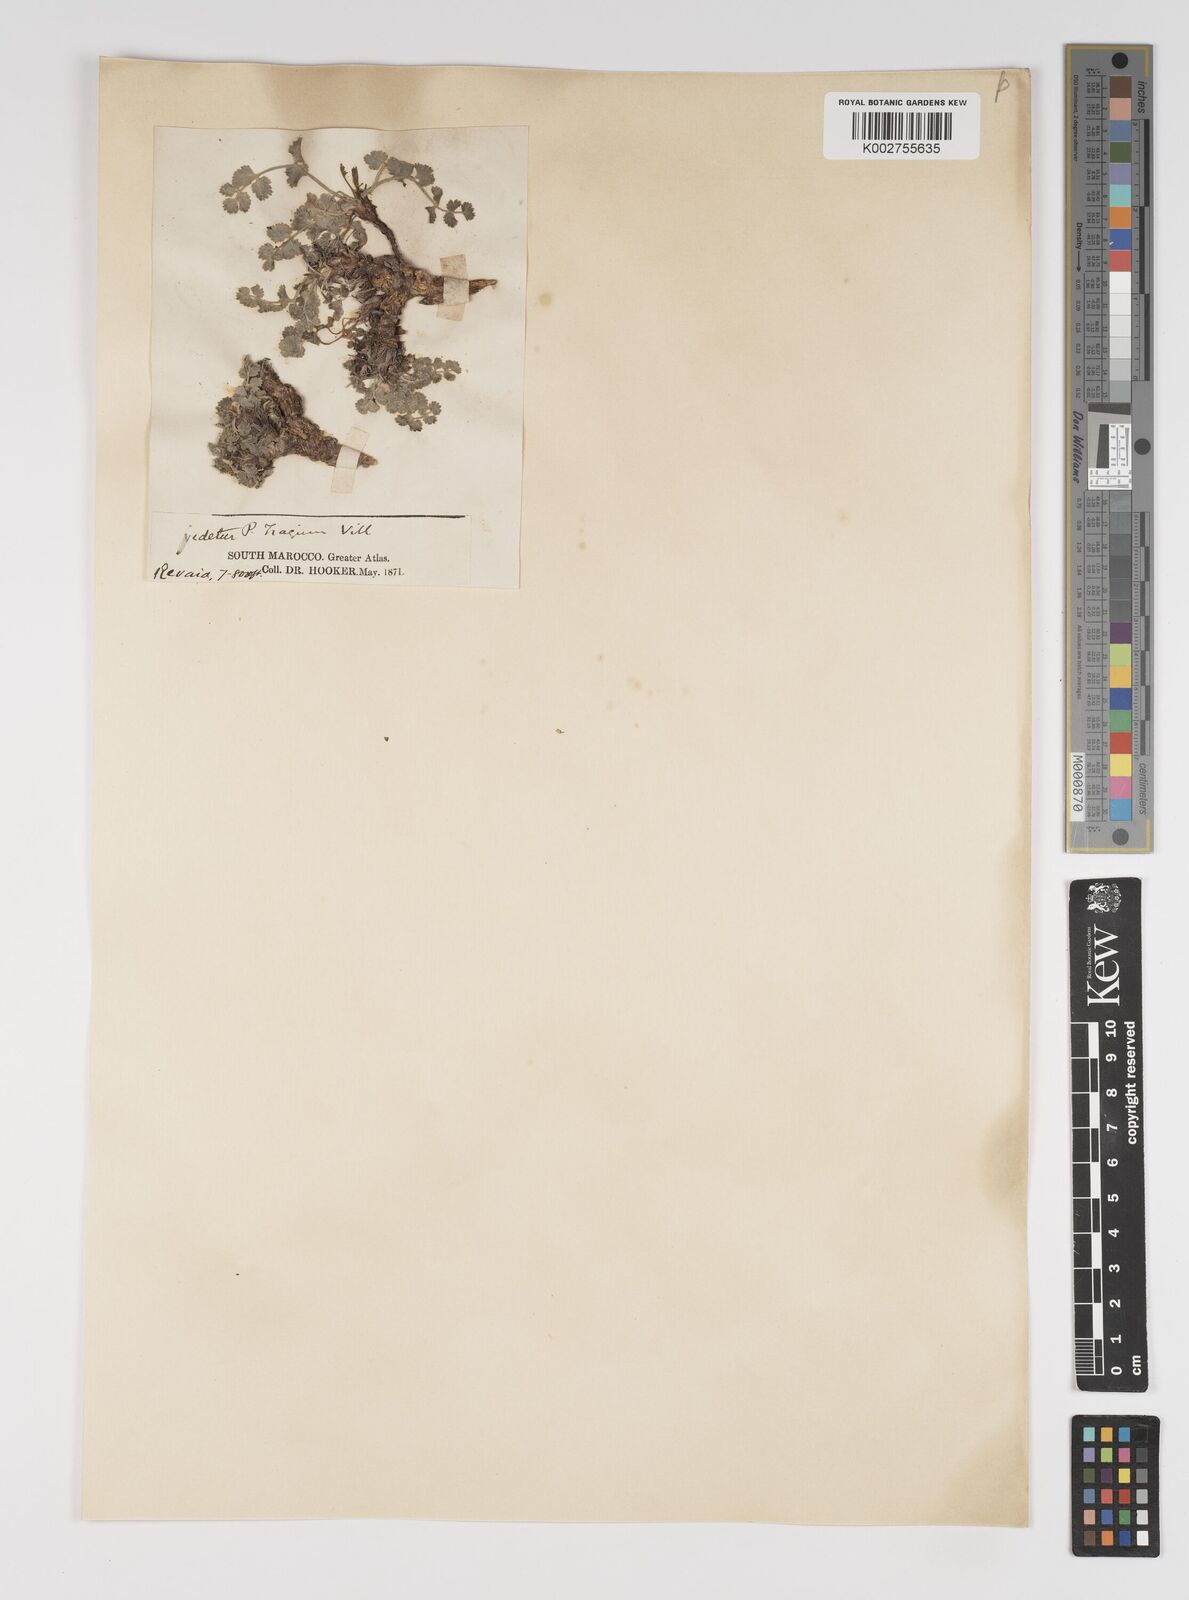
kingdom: Plantae
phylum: Tracheophyta
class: Magnoliopsida
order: Apiales
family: Apiaceae
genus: Pimpinella
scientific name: Pimpinella tragium
